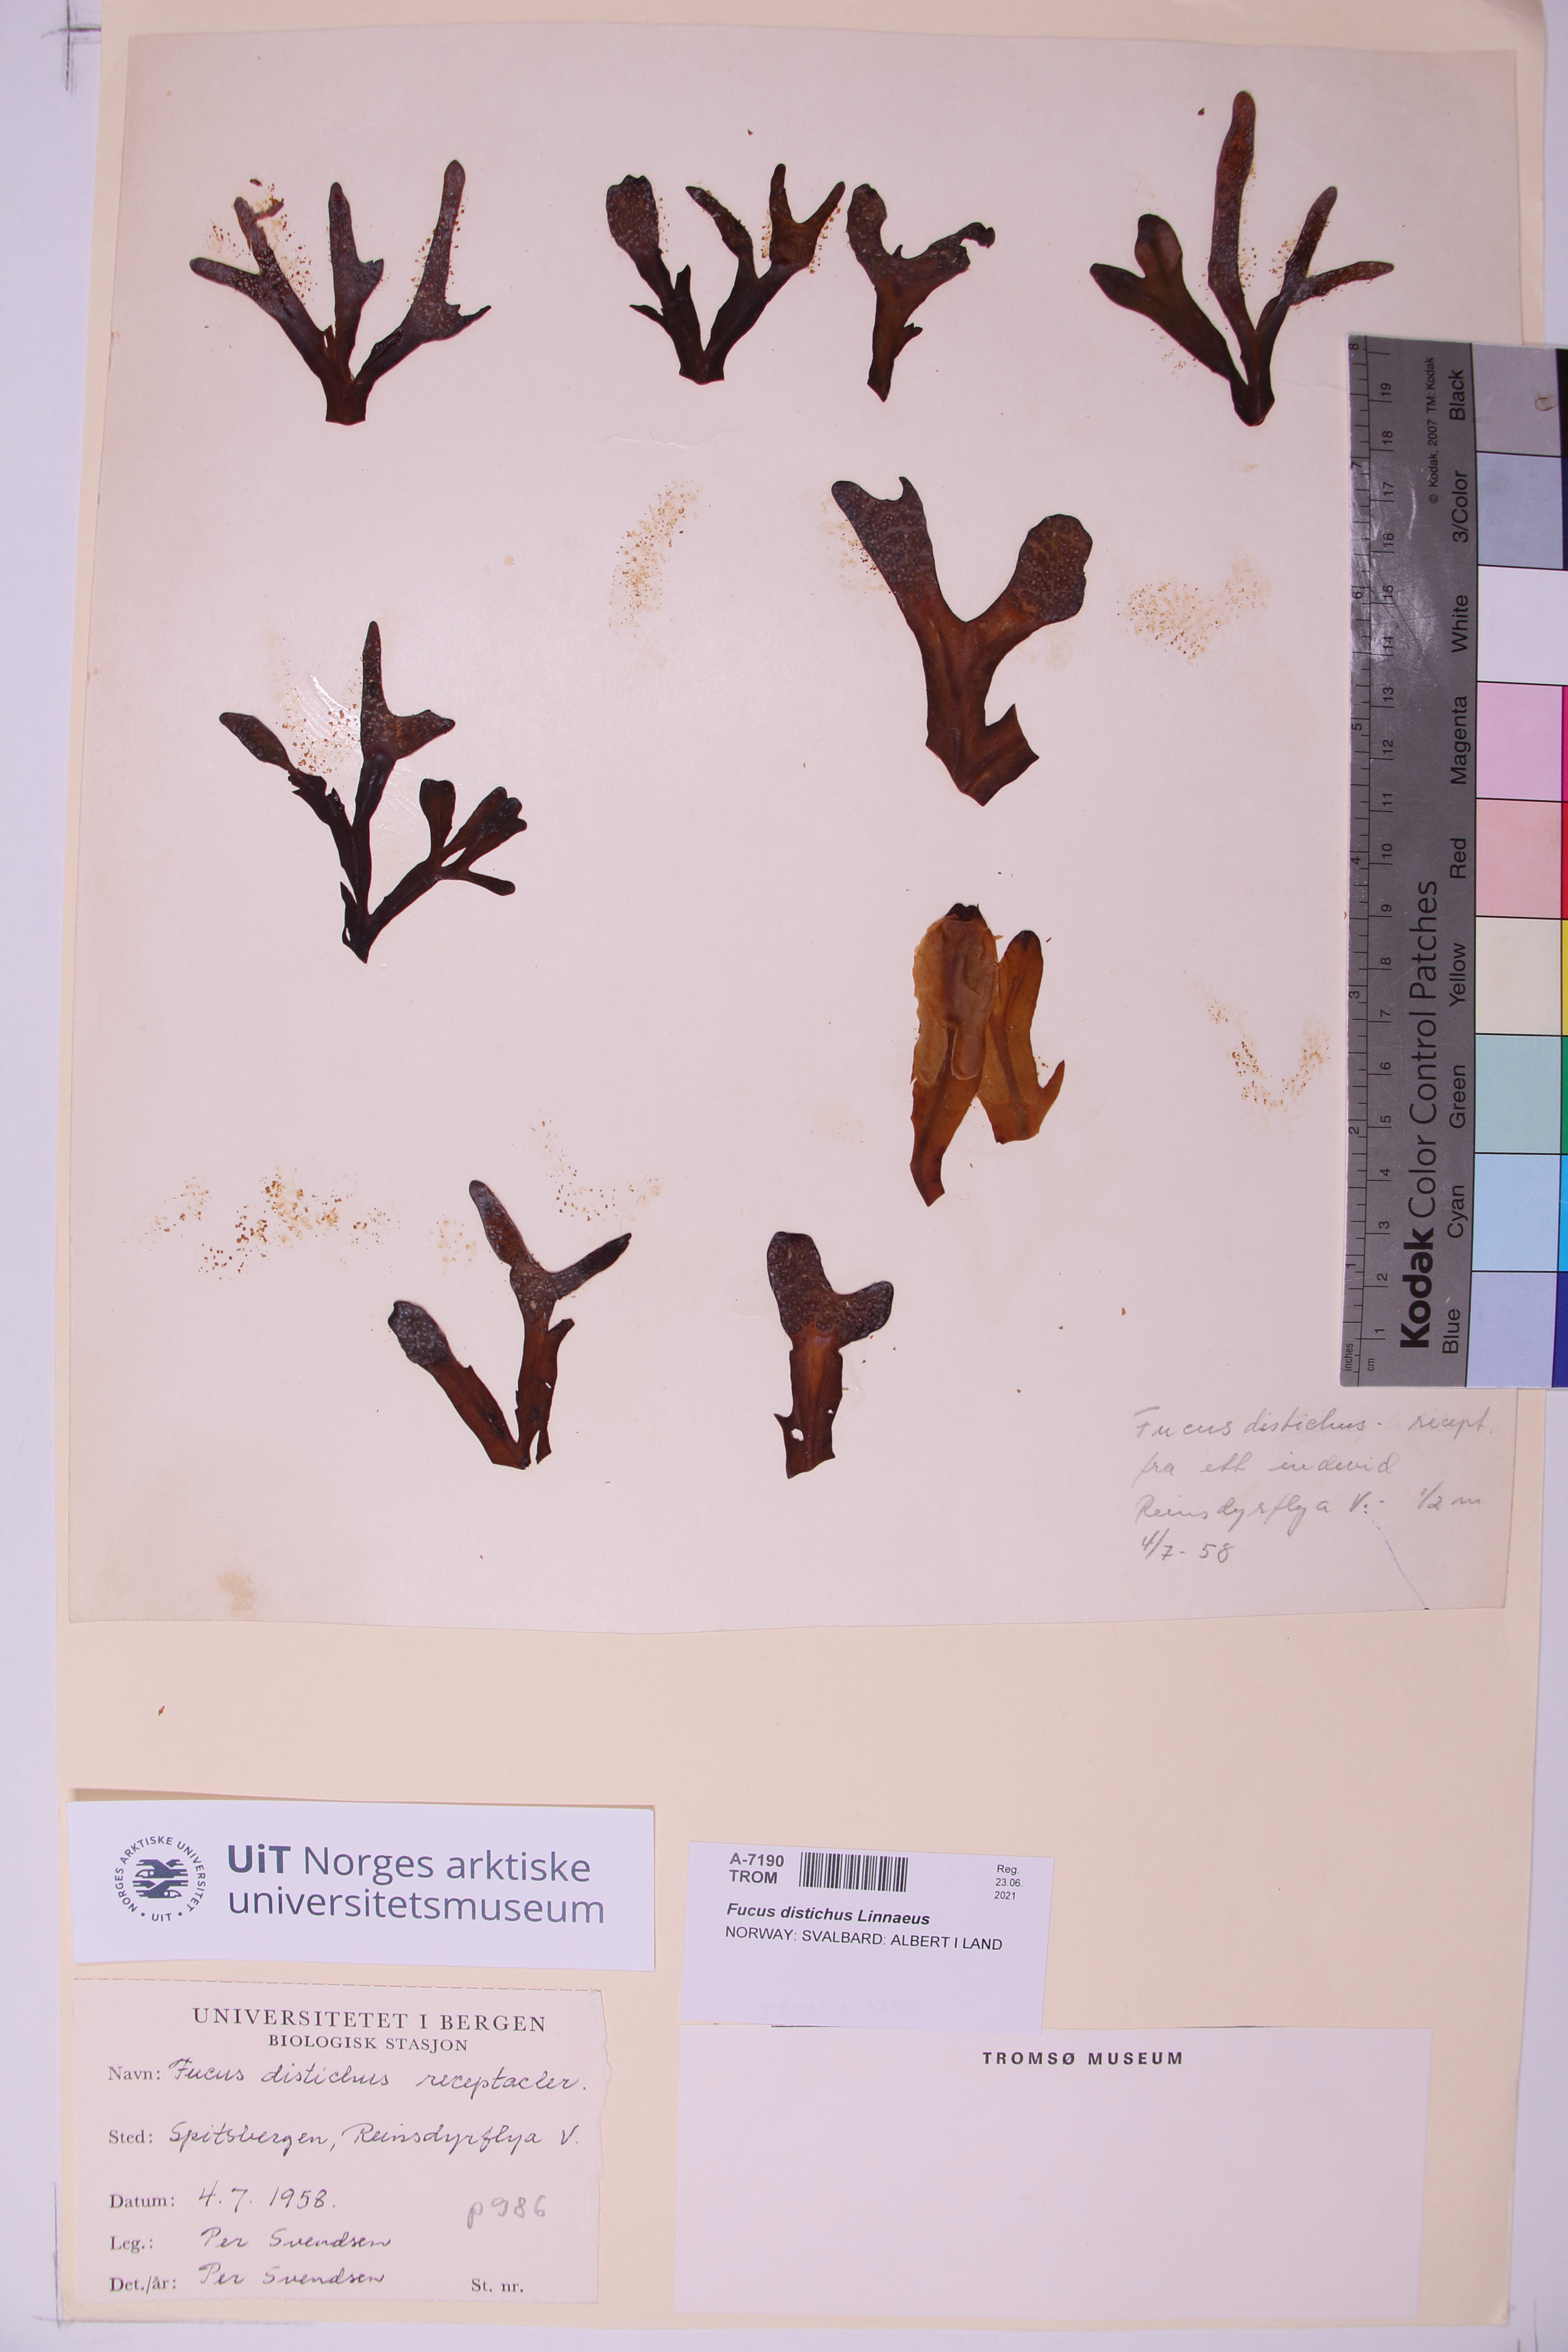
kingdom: Chromista
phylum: Ochrophyta
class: Phaeophyceae
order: Fucales
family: Fucaceae
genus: Fucus
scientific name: Fucus distichus
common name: Rockweed
